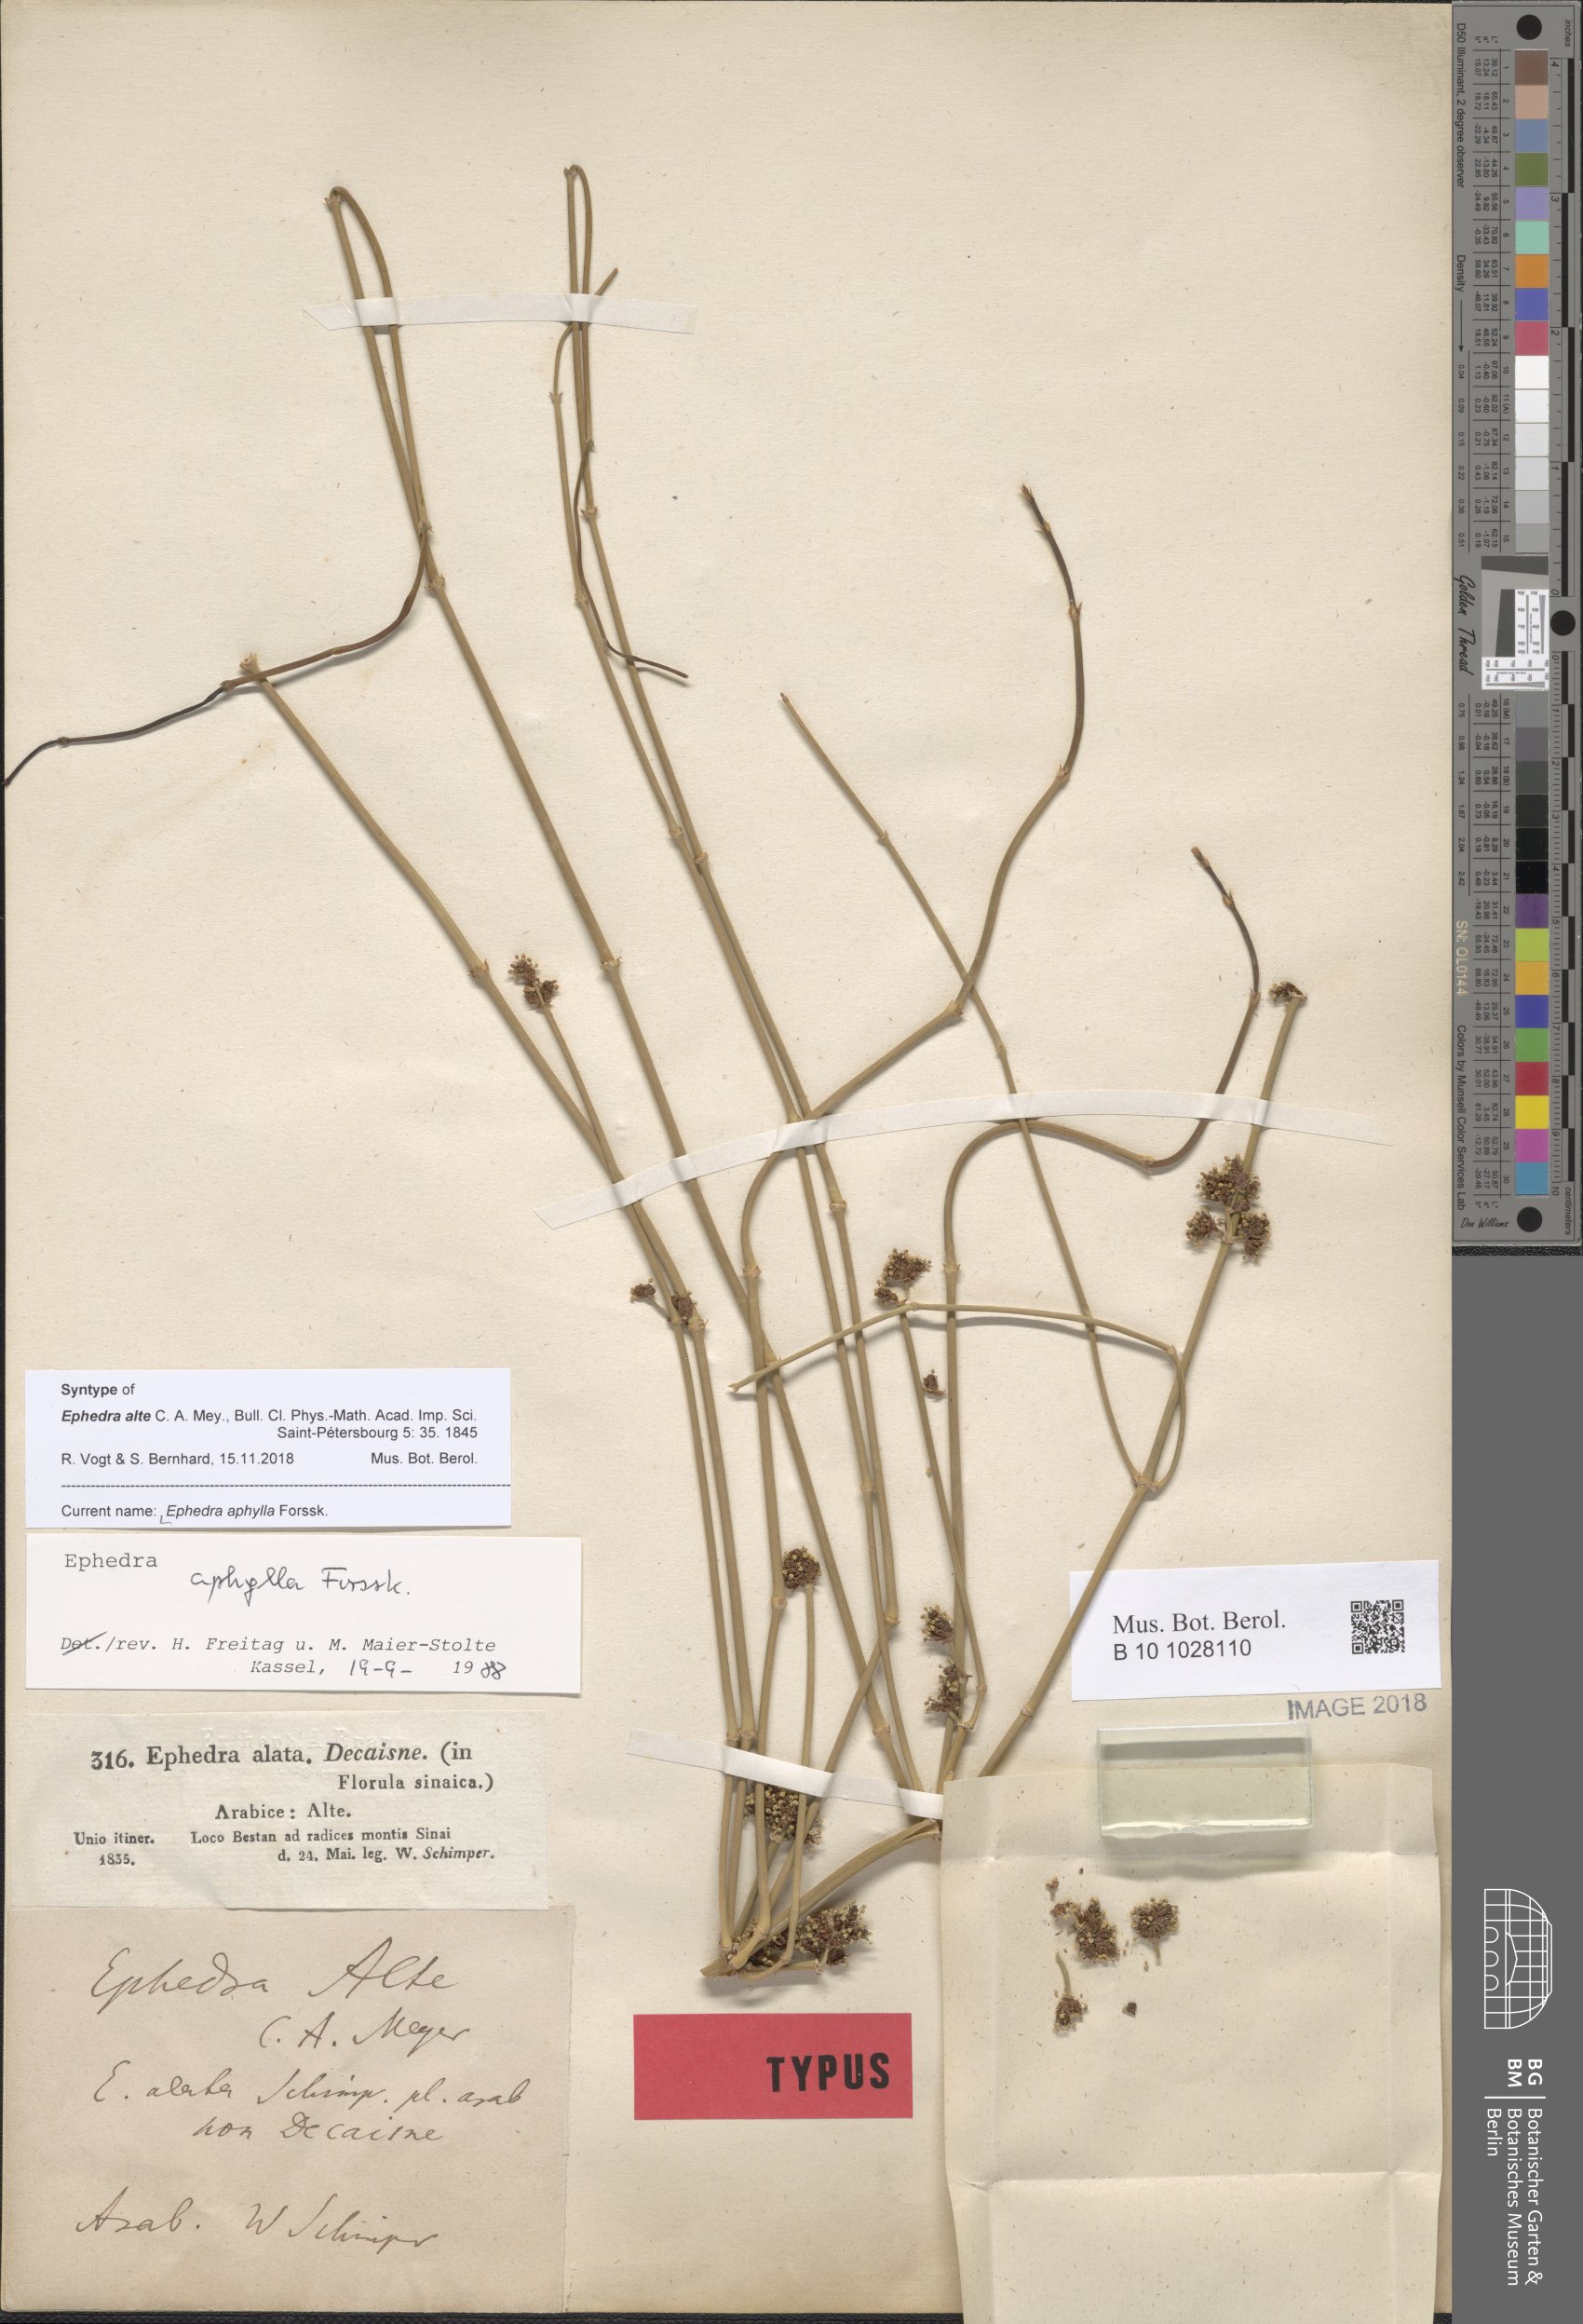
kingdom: Plantae
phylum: Tracheophyta
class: Gnetopsida
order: Ephedrales
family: Ephedraceae
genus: Ephedra
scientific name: Ephedra aphylla
